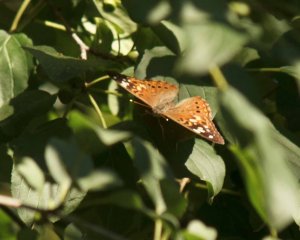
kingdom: Animalia
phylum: Arthropoda
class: Insecta
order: Lepidoptera
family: Nymphalidae
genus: Asterocampa
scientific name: Asterocampa celtis
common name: Hackberry Emperor
